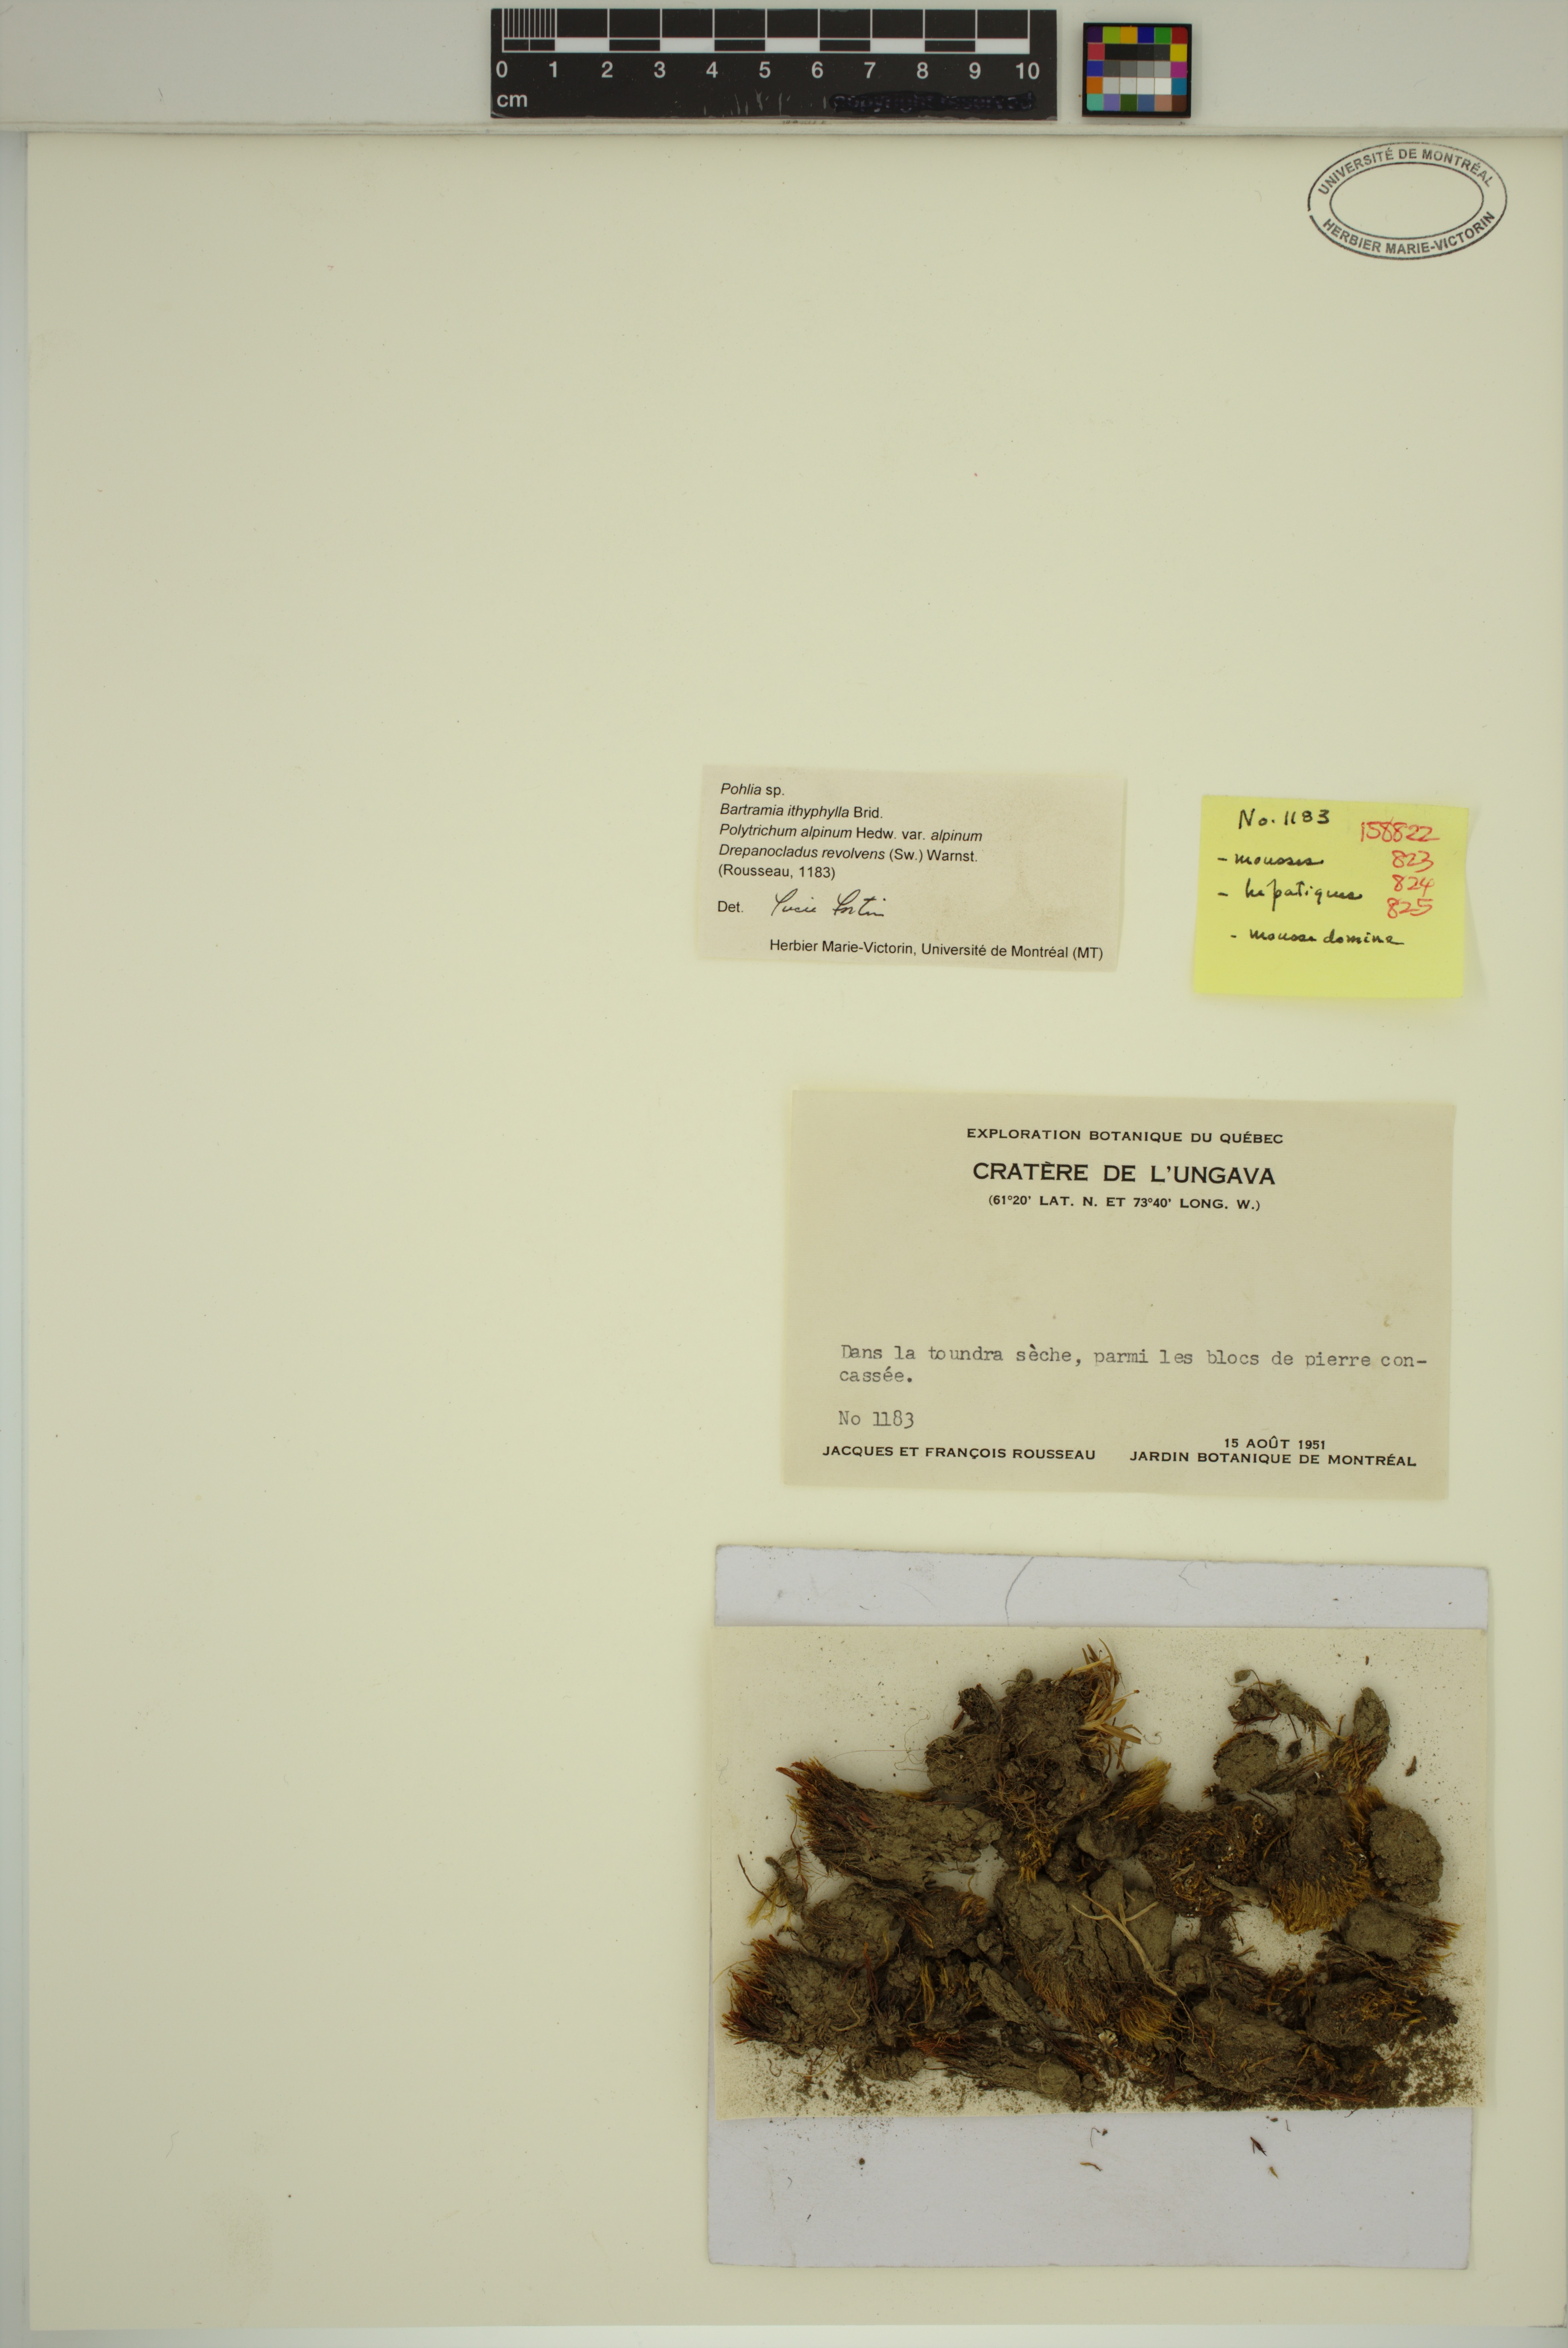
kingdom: Plantae
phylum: Bryophyta
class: Polytrichopsida
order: Polytrichales
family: Polytrichaceae
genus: Polytrichastrum
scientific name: Polytrichastrum alpinum
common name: Alpine haircap
